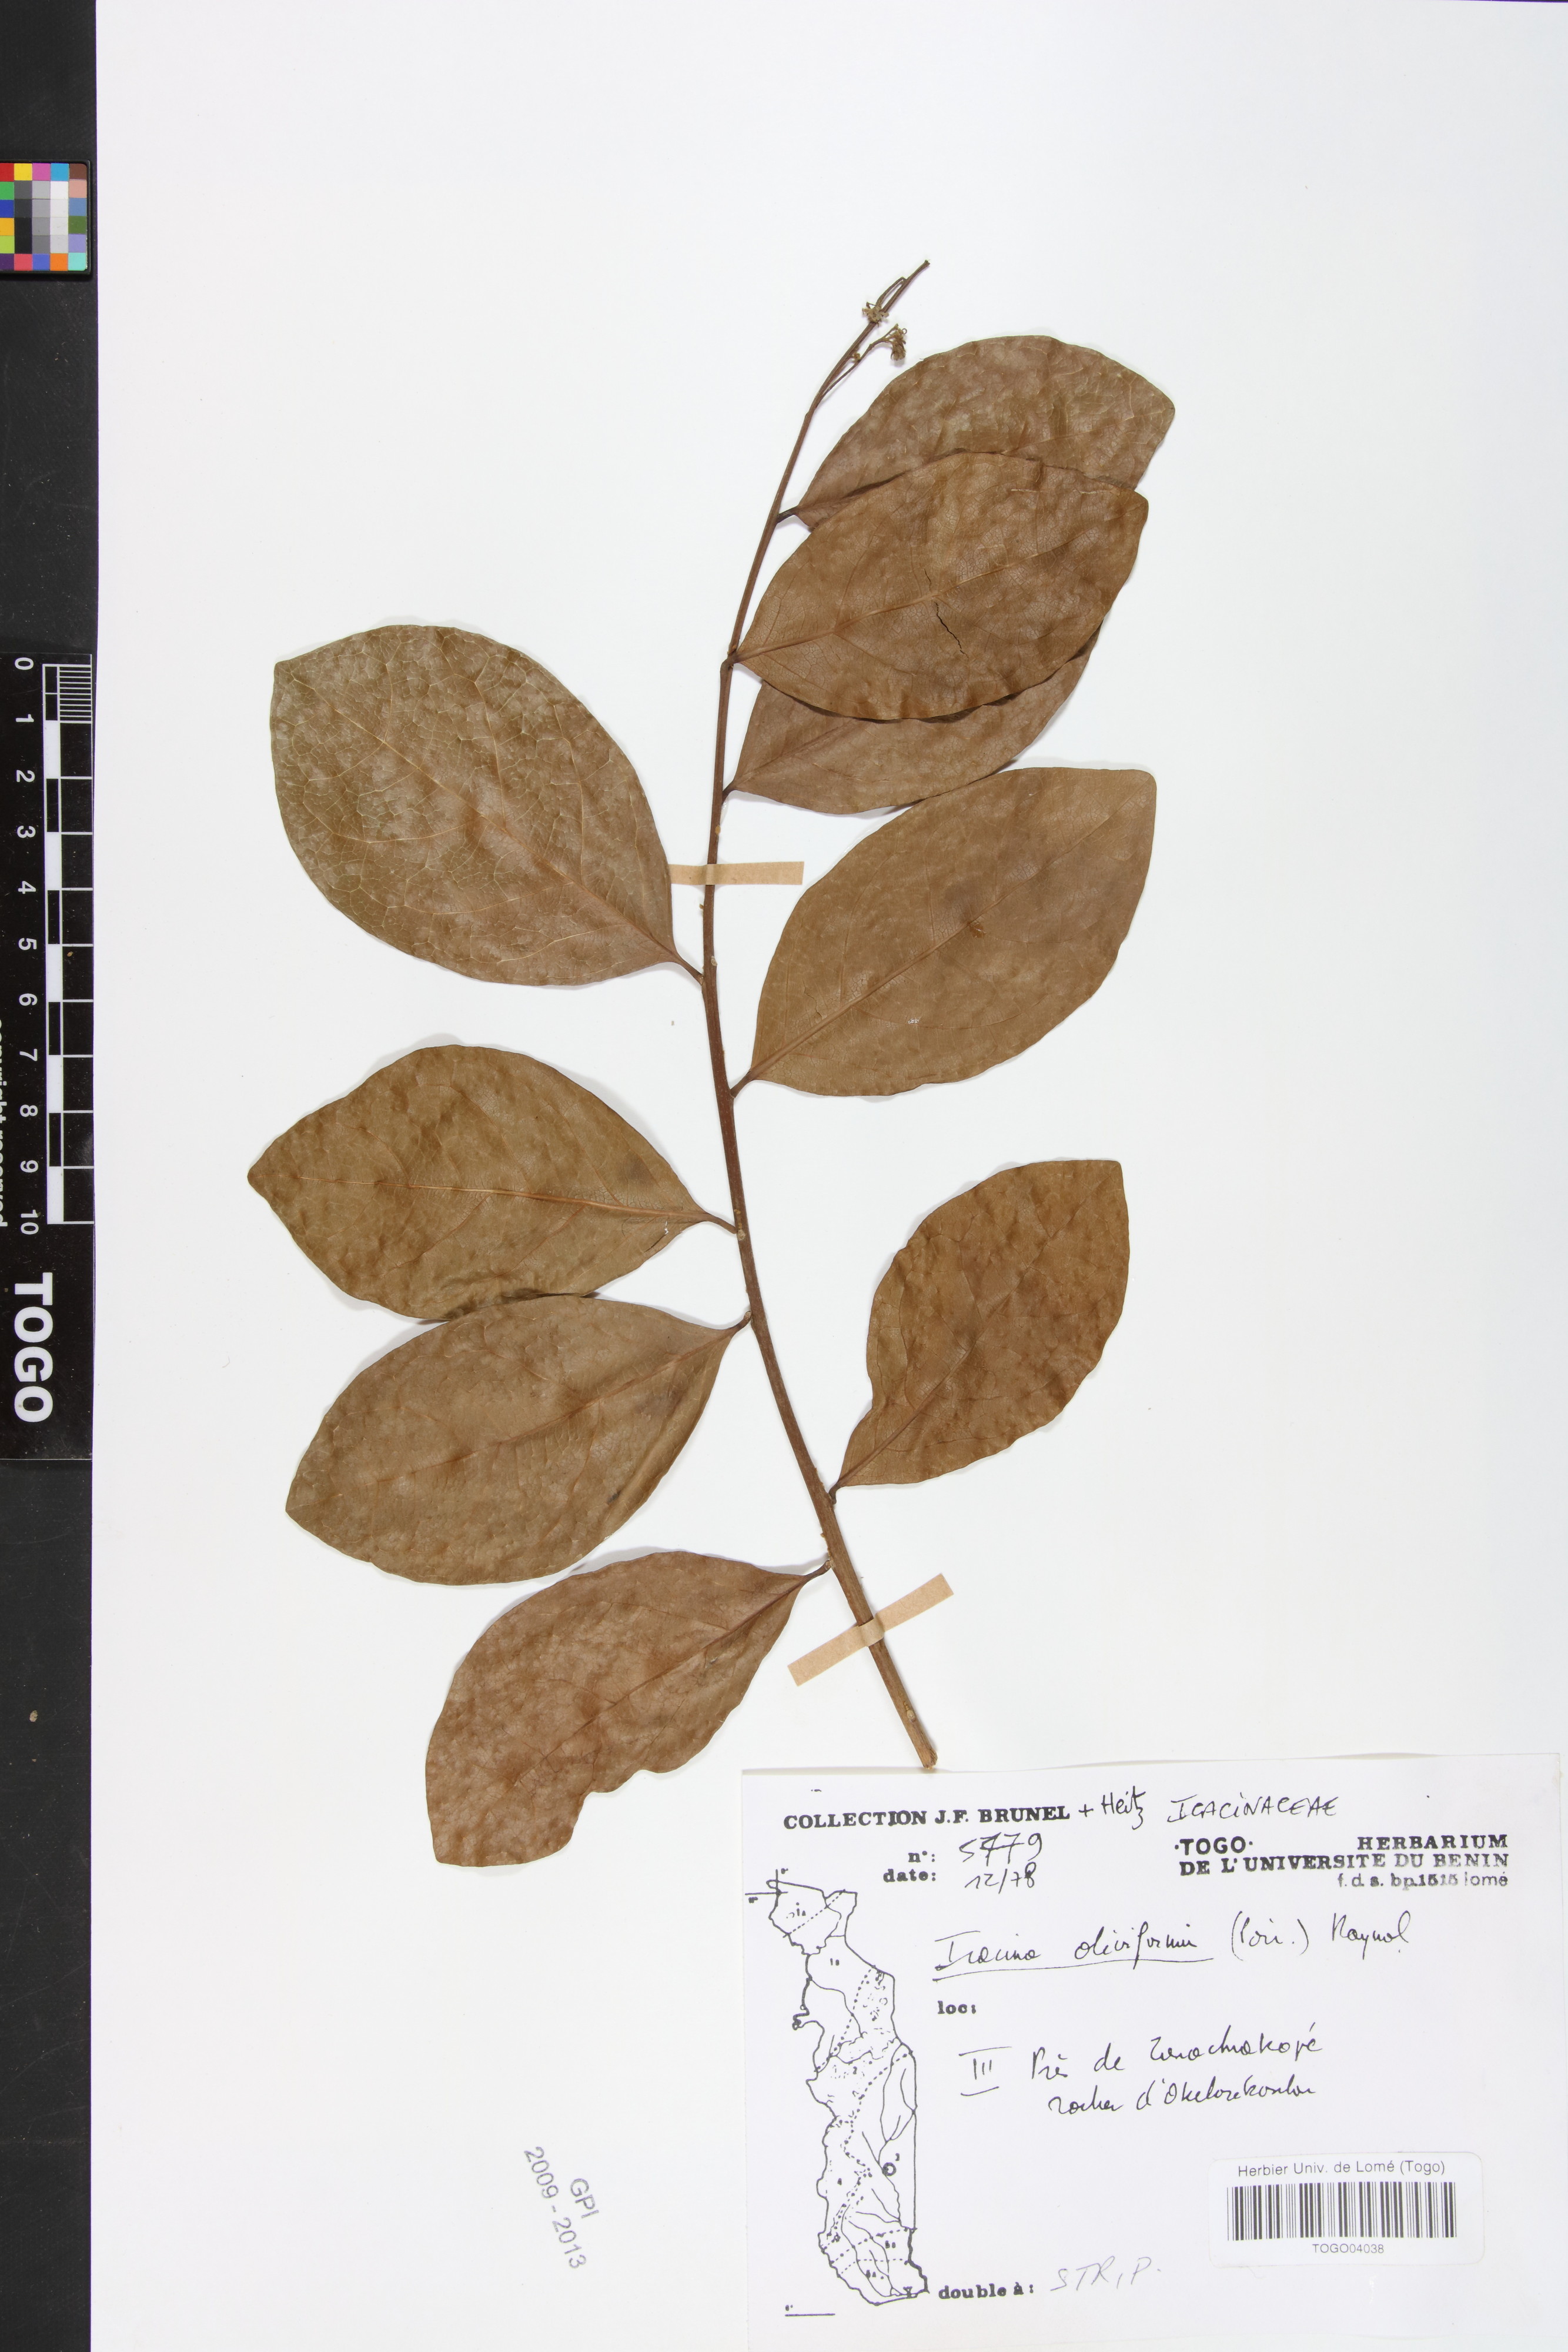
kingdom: Plantae
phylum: Tracheophyta
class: Magnoliopsida
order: Icacinales
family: Icacinaceae
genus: Icacina
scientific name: Icacina oliviformis
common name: False yam
